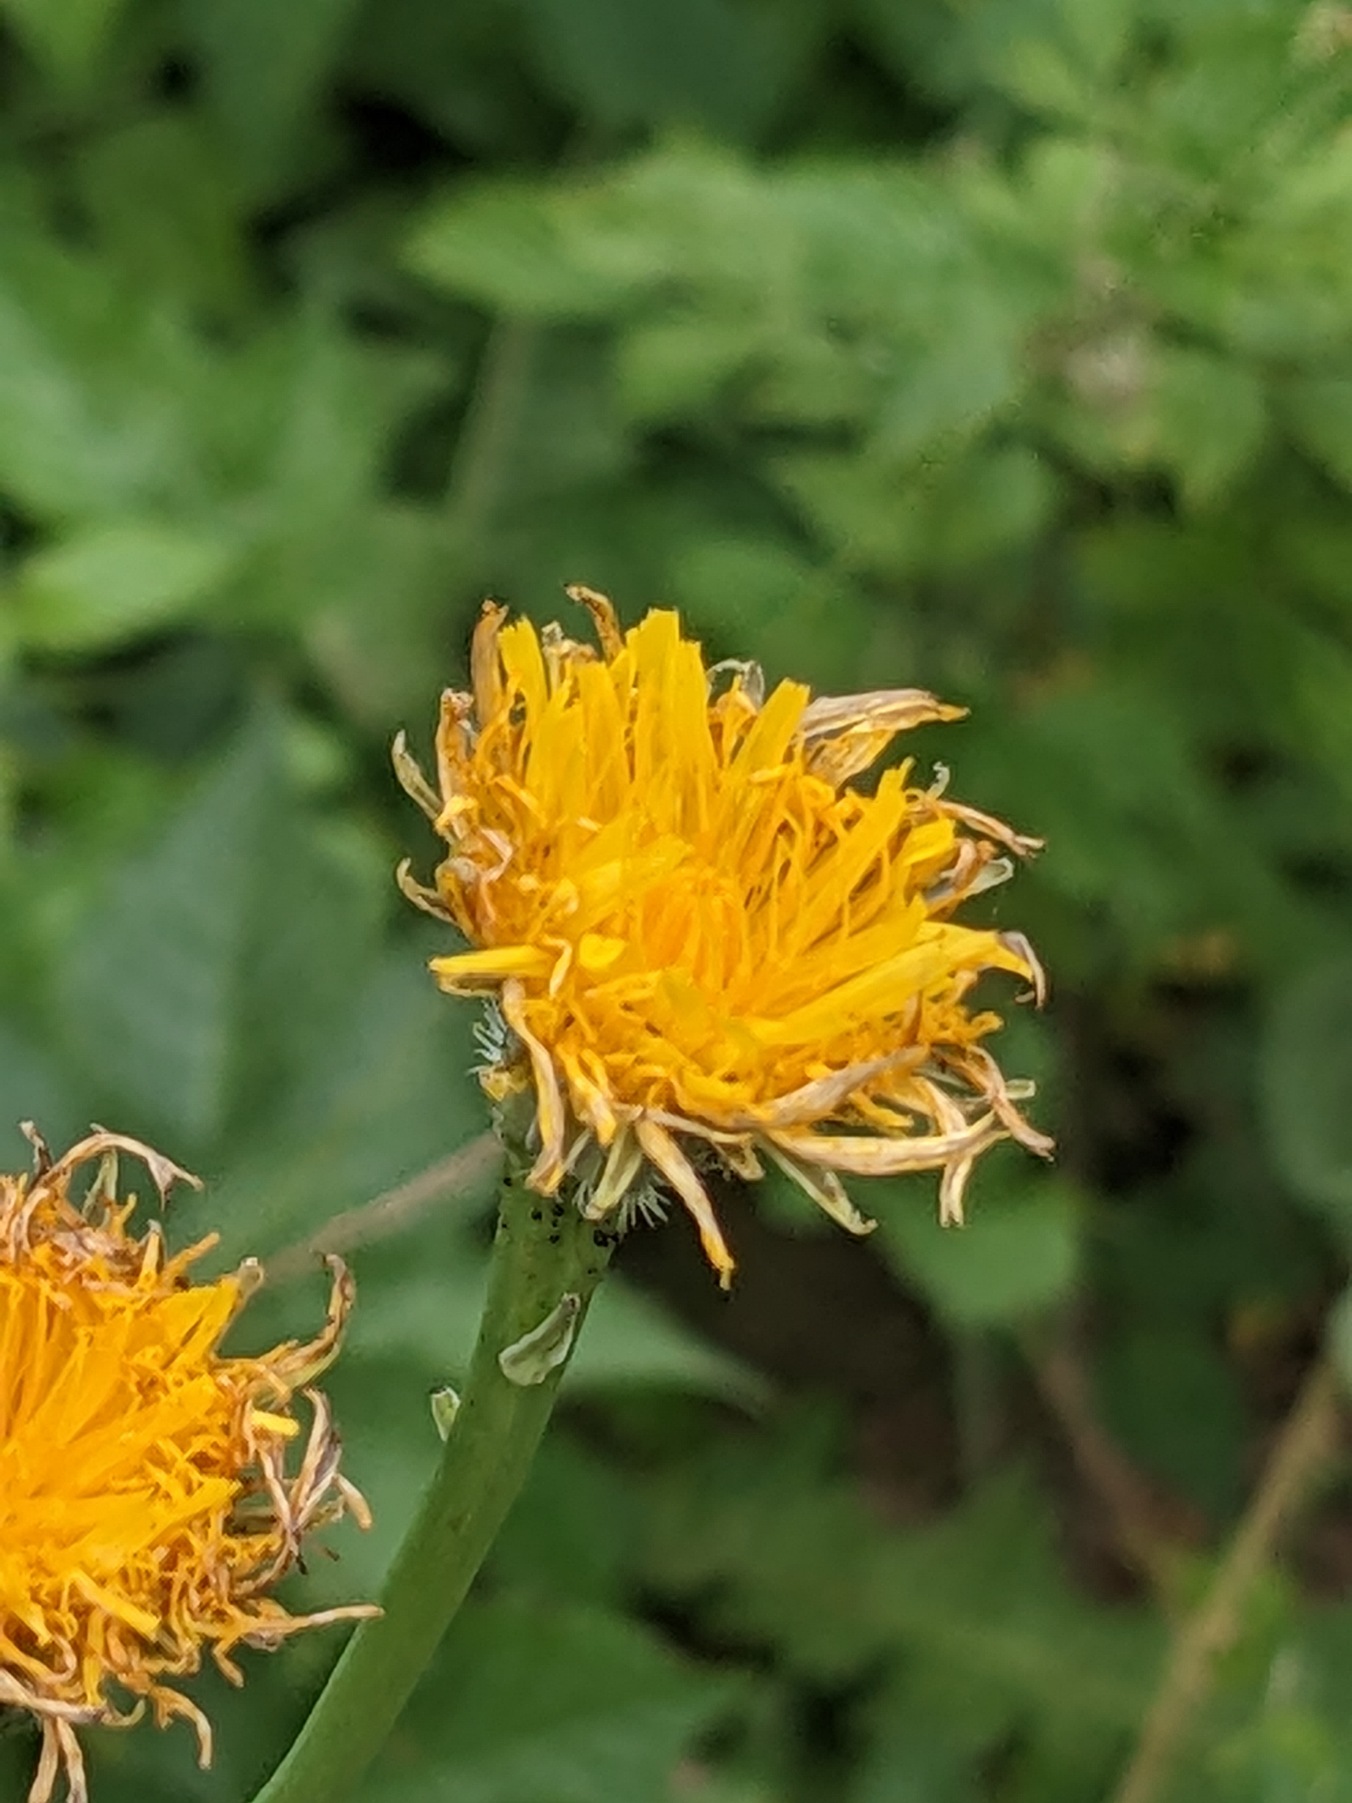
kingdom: Plantae
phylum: Tracheophyta
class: Magnoliopsida
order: Asterales
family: Asteraceae
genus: Hypochaeris
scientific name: Hypochaeris radicata
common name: Almindelig kongepen
